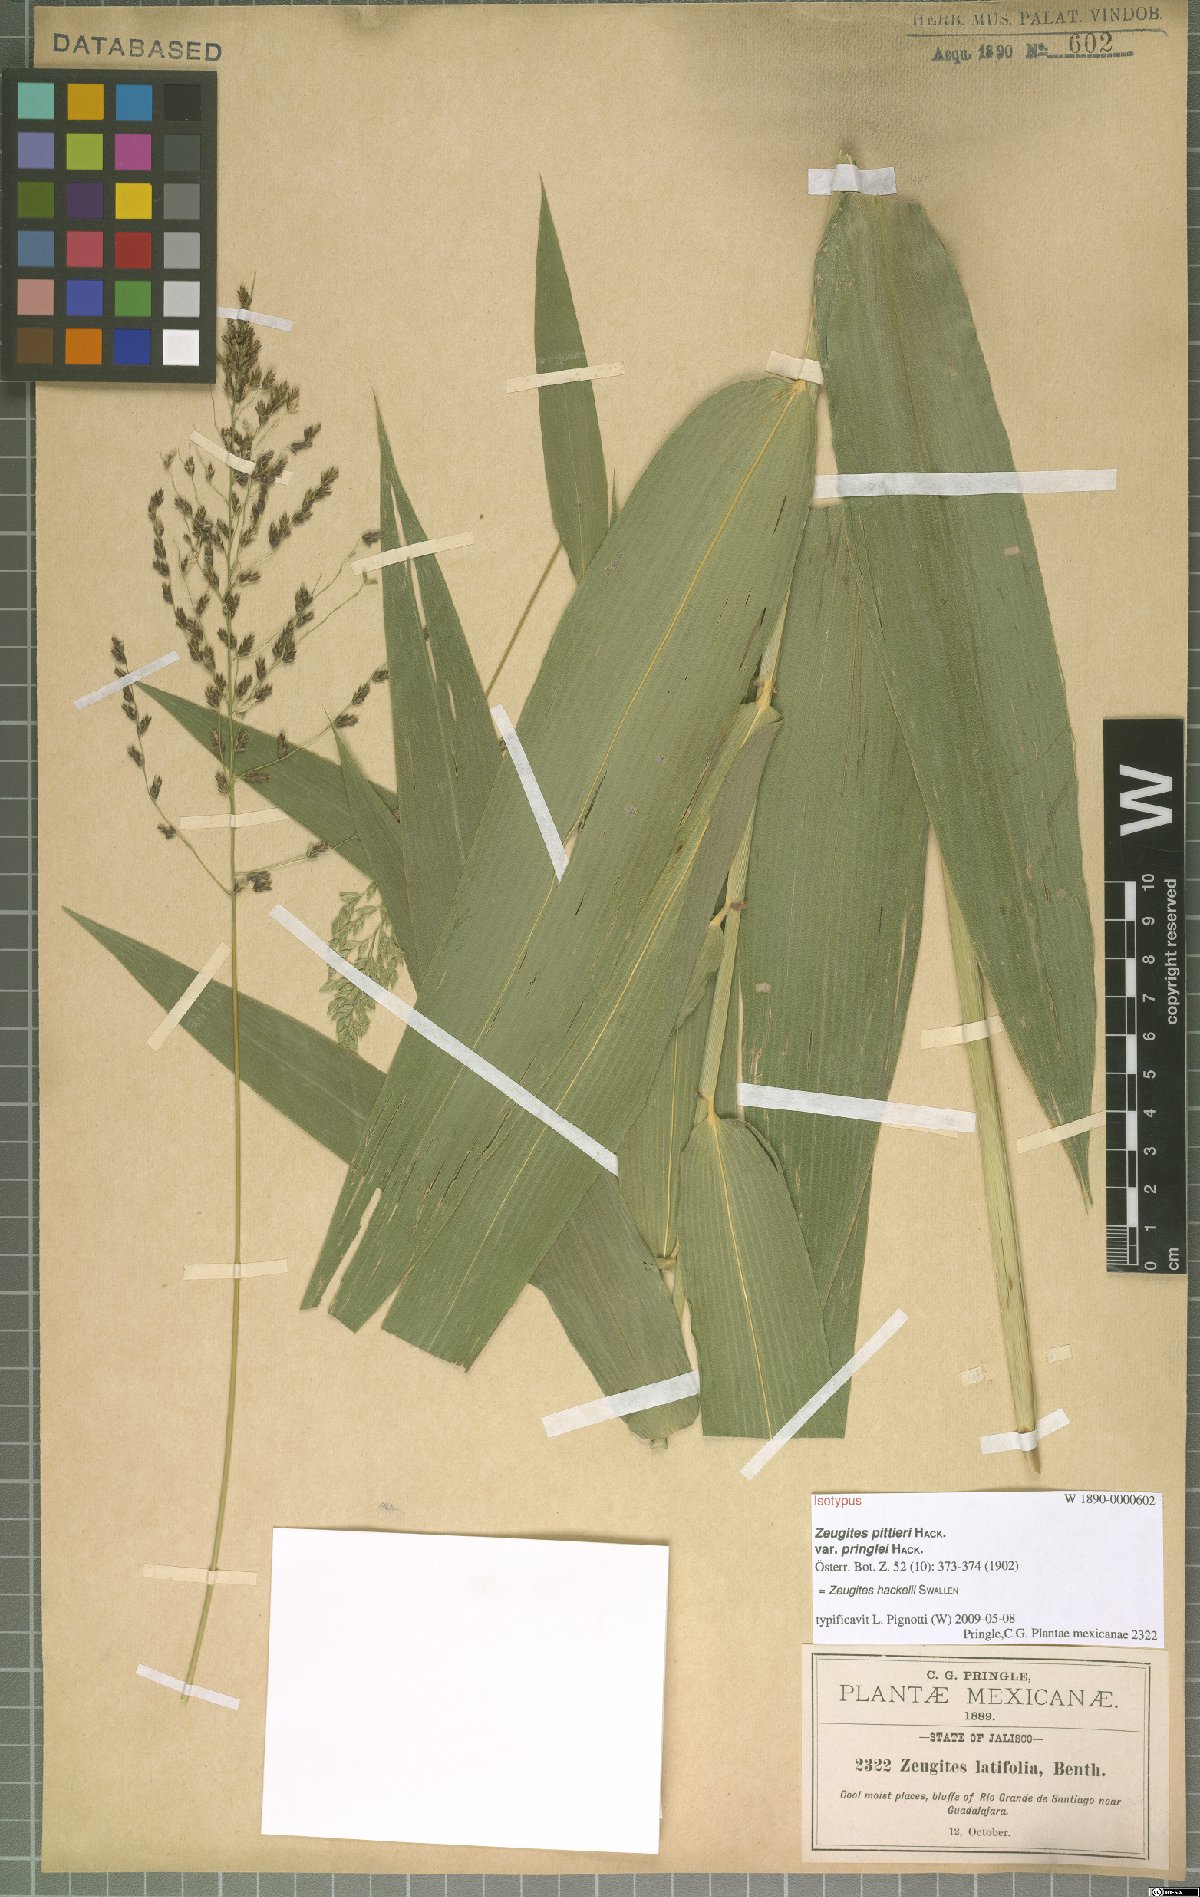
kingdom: Plantae
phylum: Tracheophyta
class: Liliopsida
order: Poales
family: Poaceae
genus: Zeugites
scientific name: Zeugites hackelii
